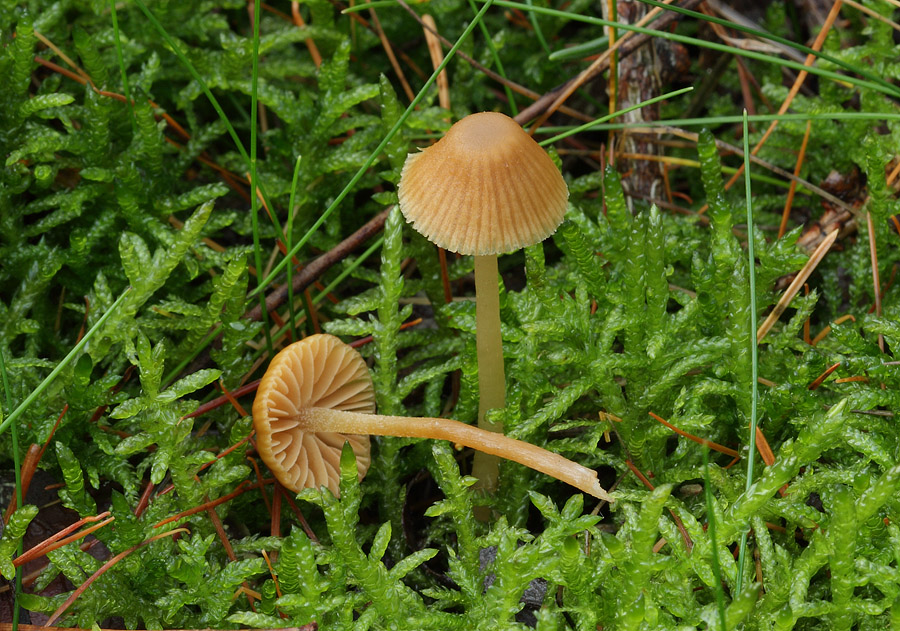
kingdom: Fungi
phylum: Basidiomycota
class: Agaricomycetes
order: Agaricales
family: Hymenogastraceae
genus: Galerina
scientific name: Galerina pumila
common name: honninggul hjelmhat
